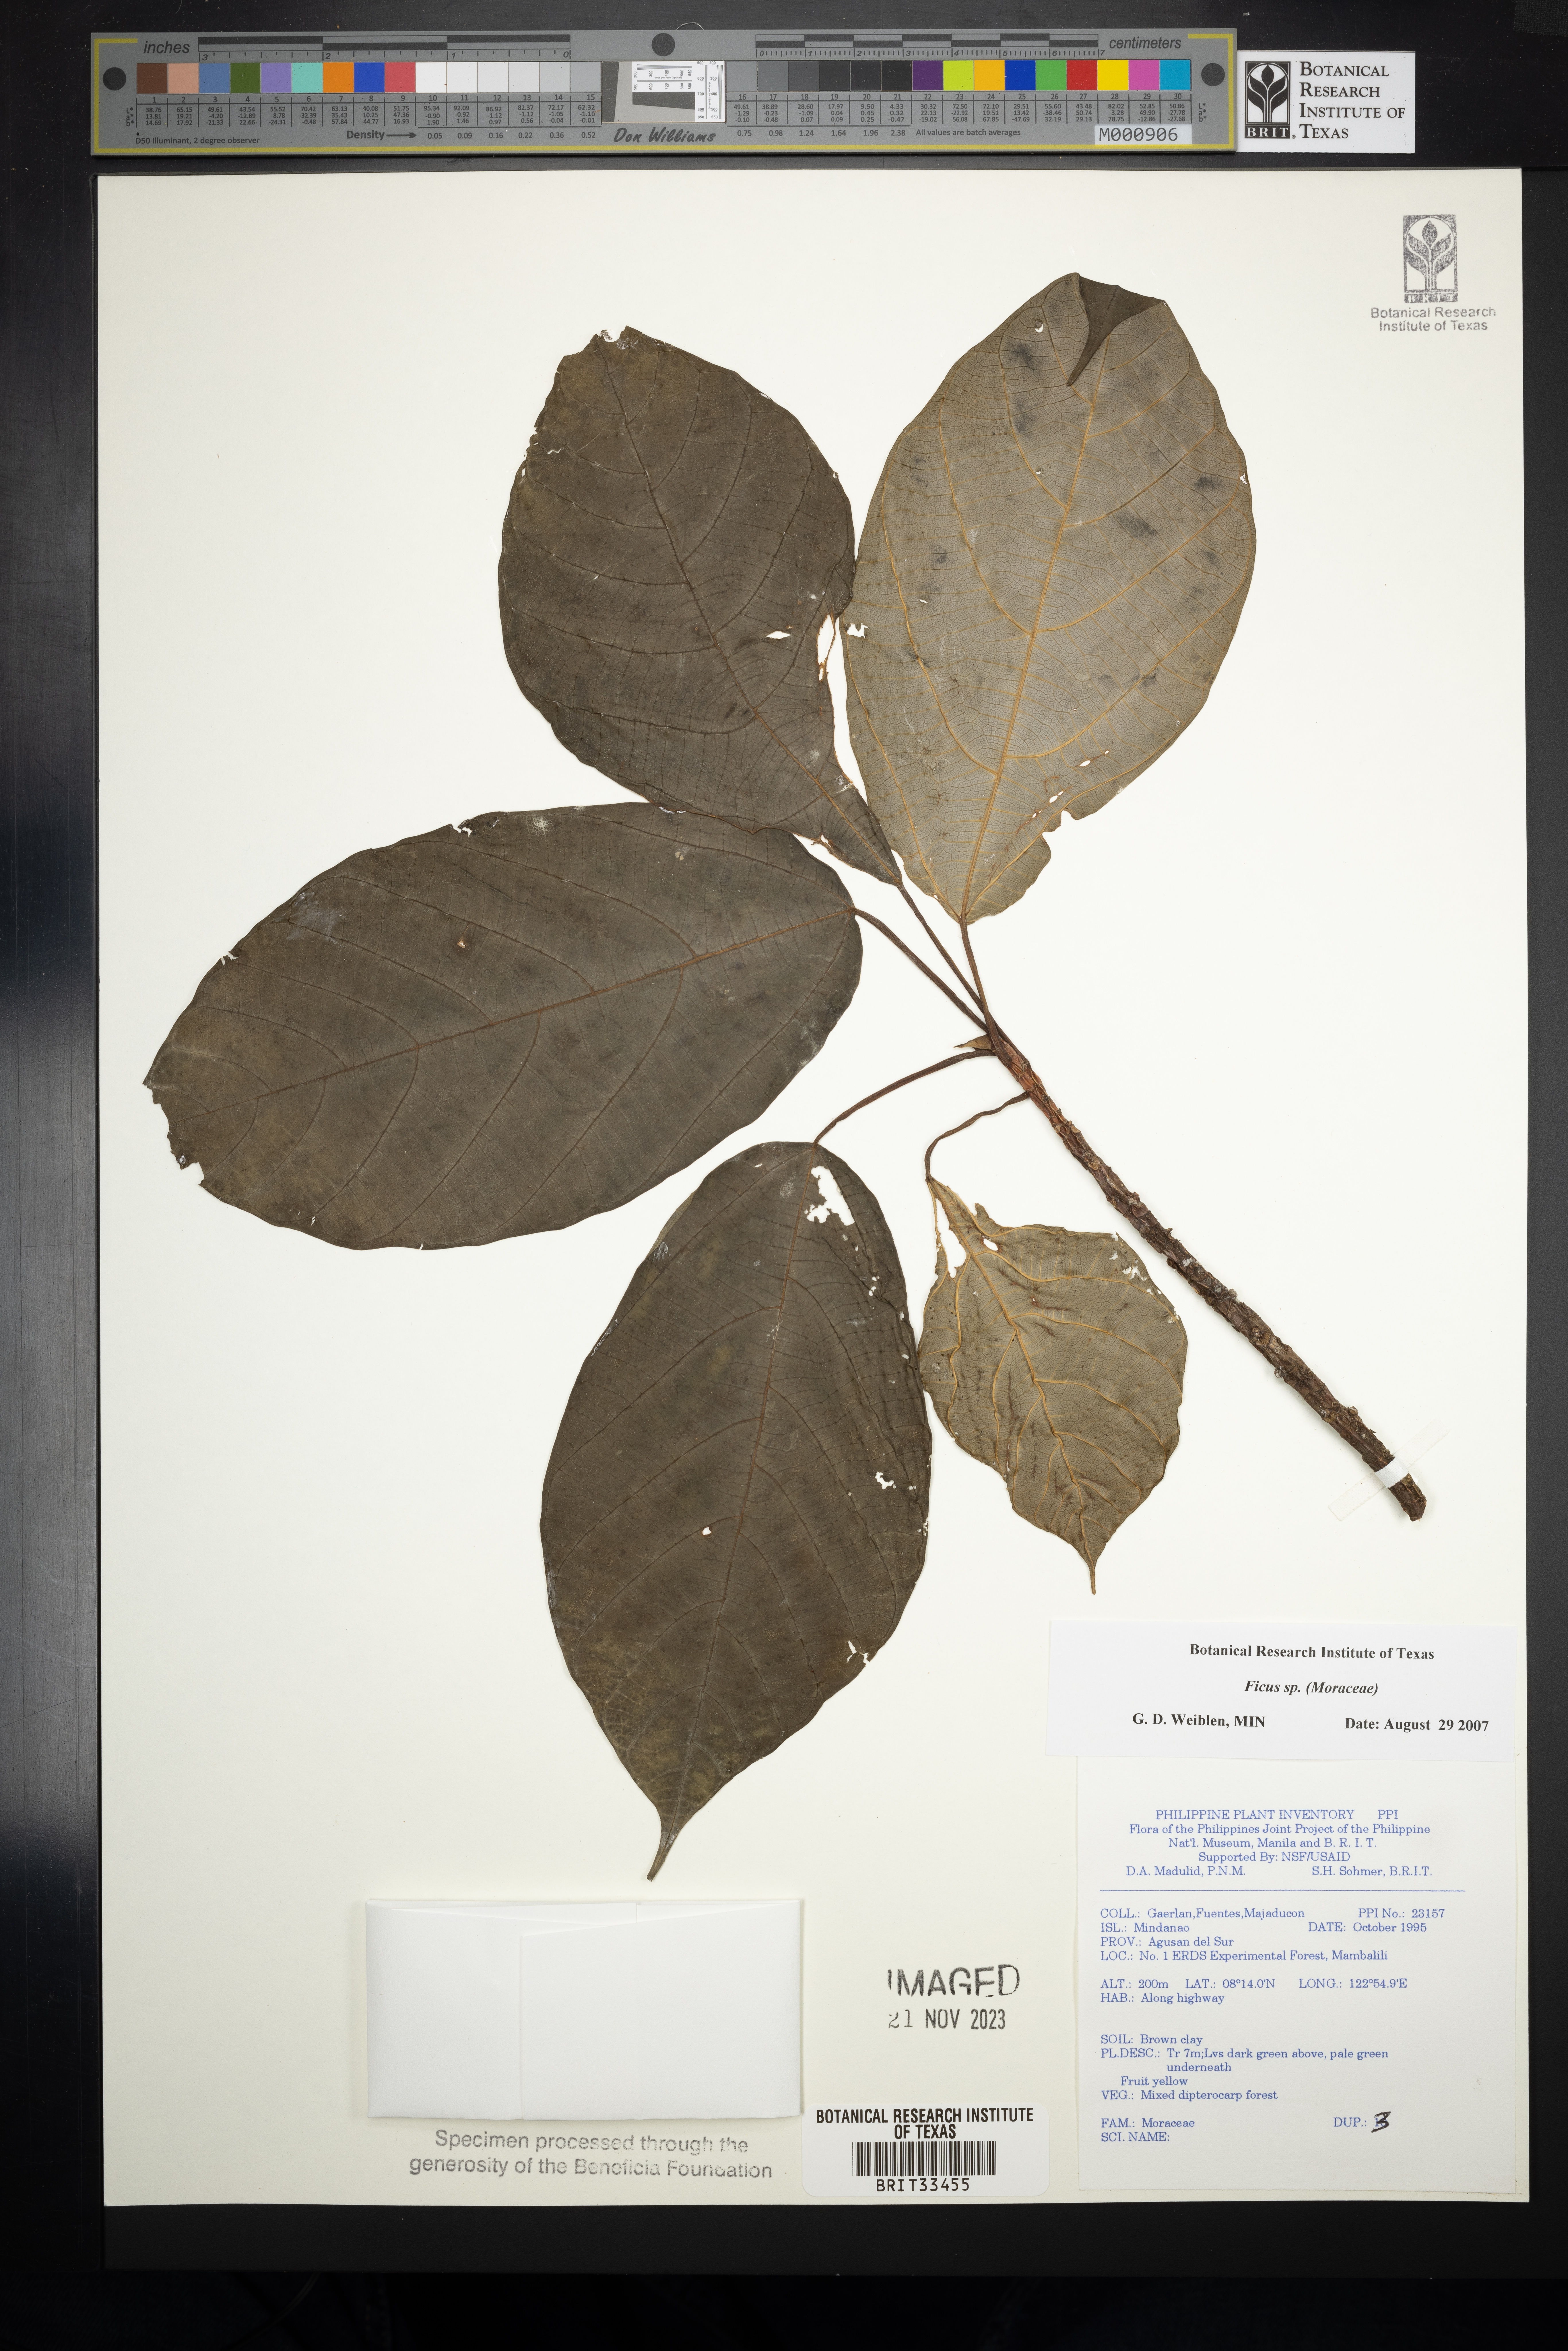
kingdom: Plantae
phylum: Tracheophyta
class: Magnoliopsida
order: Rosales
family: Moraceae
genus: Ficus
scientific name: Ficus
